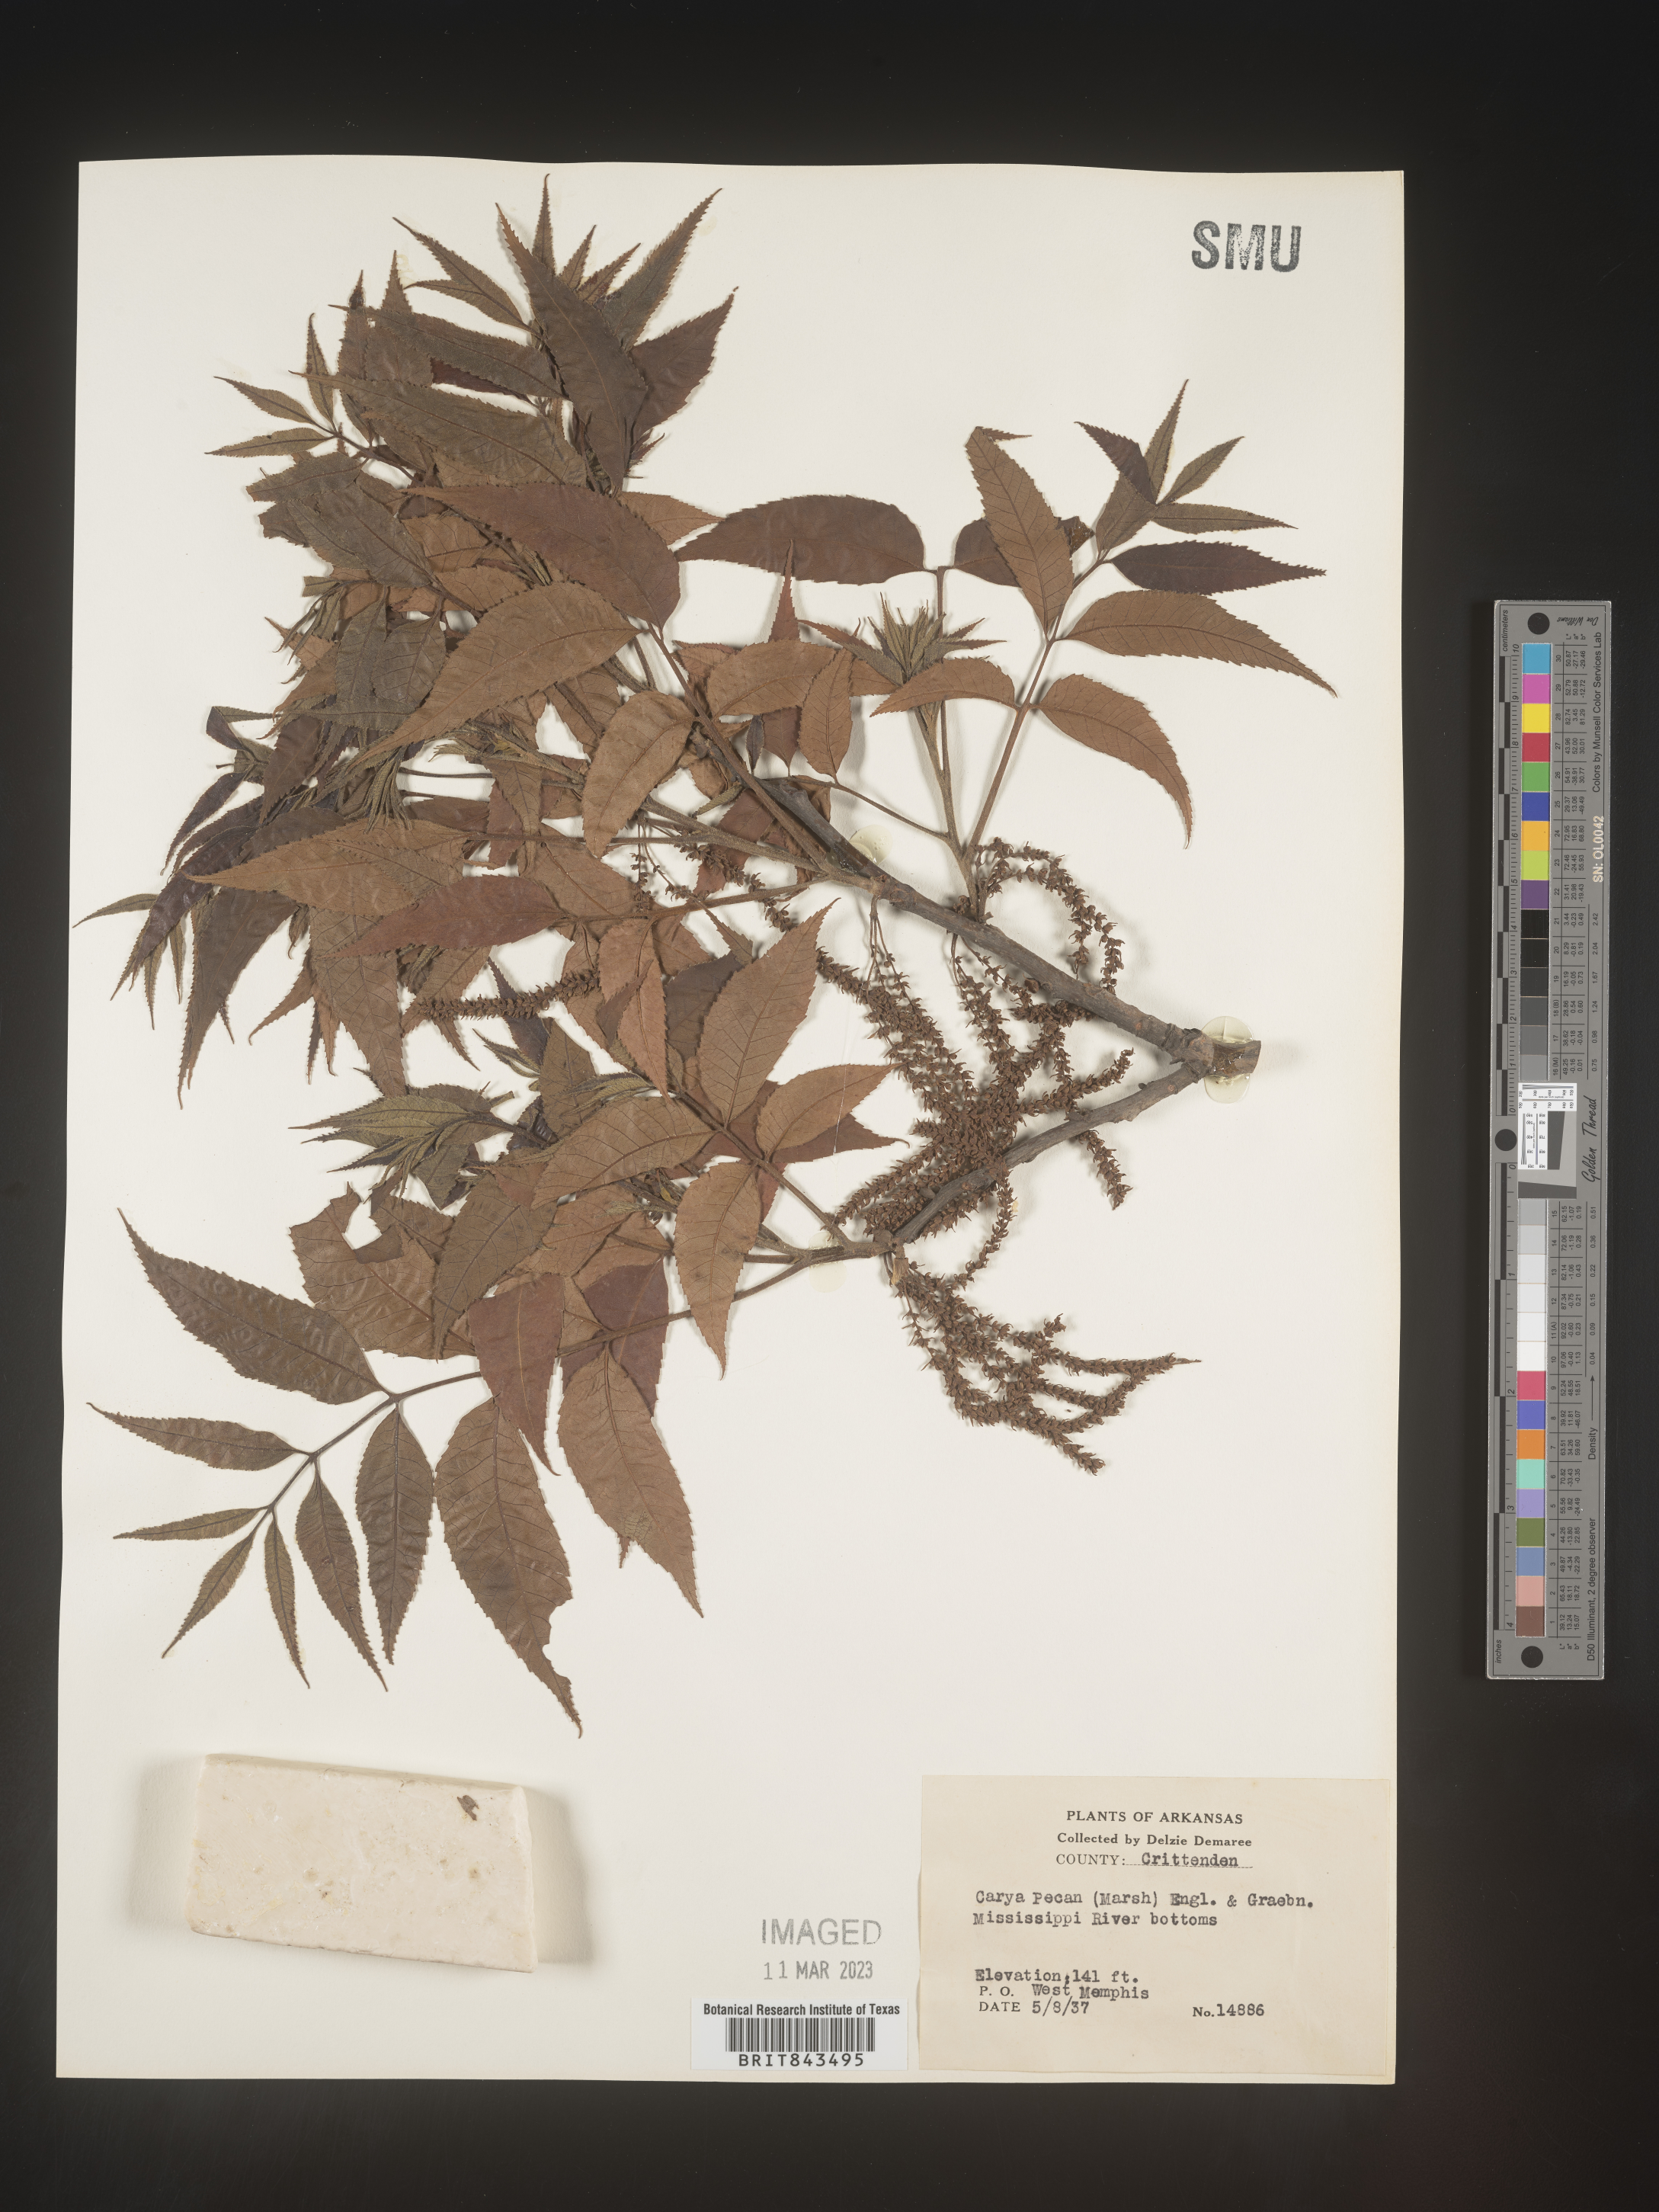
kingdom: Plantae
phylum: Tracheophyta
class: Magnoliopsida
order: Fagales
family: Juglandaceae
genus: Carya
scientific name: Carya illinoinensis
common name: Pecan
